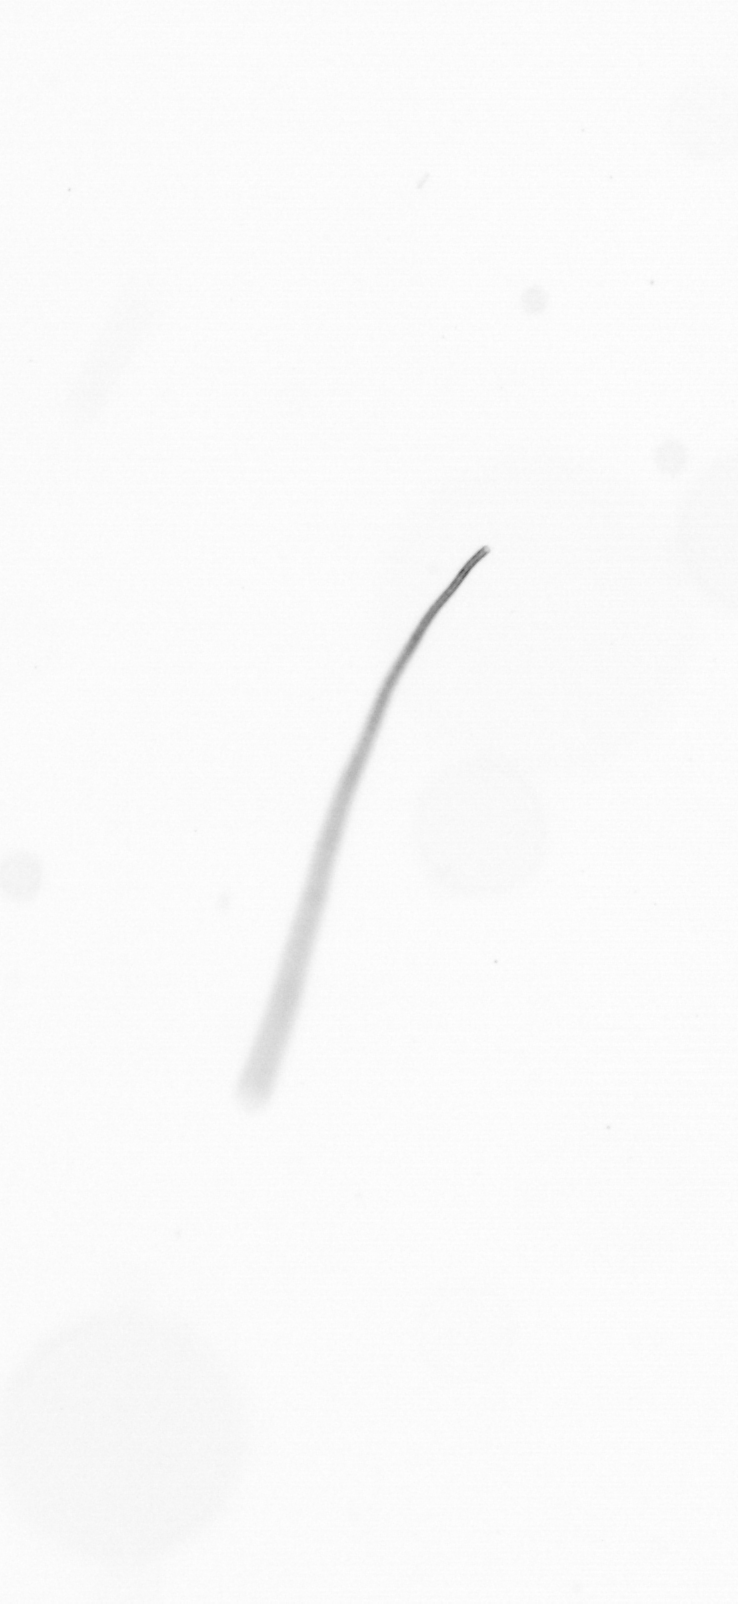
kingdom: Chromista
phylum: Ochrophyta
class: Bacillariophyceae
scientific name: Bacillariophyceae
